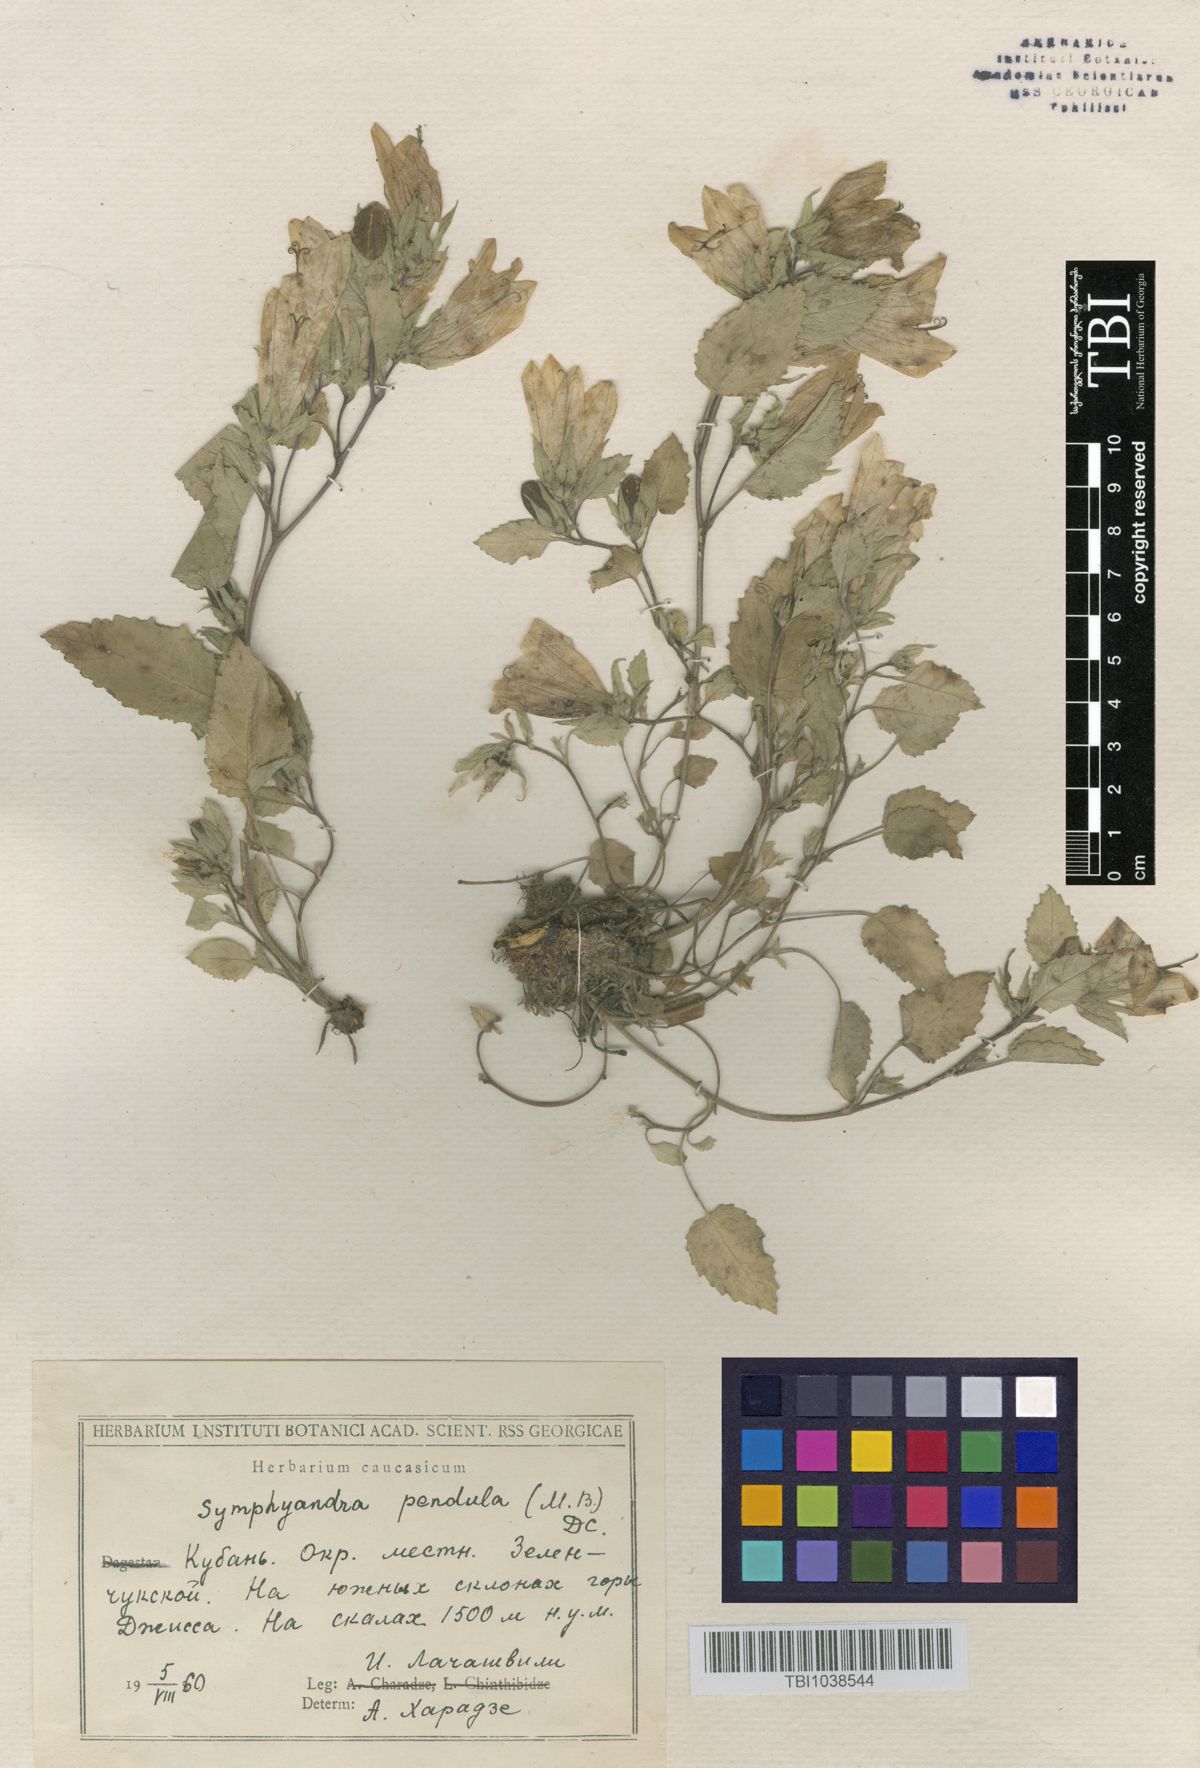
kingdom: Plantae
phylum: Tracheophyta
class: Magnoliopsida
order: Asterales
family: Campanulaceae
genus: Campanula
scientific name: Campanula pendula
